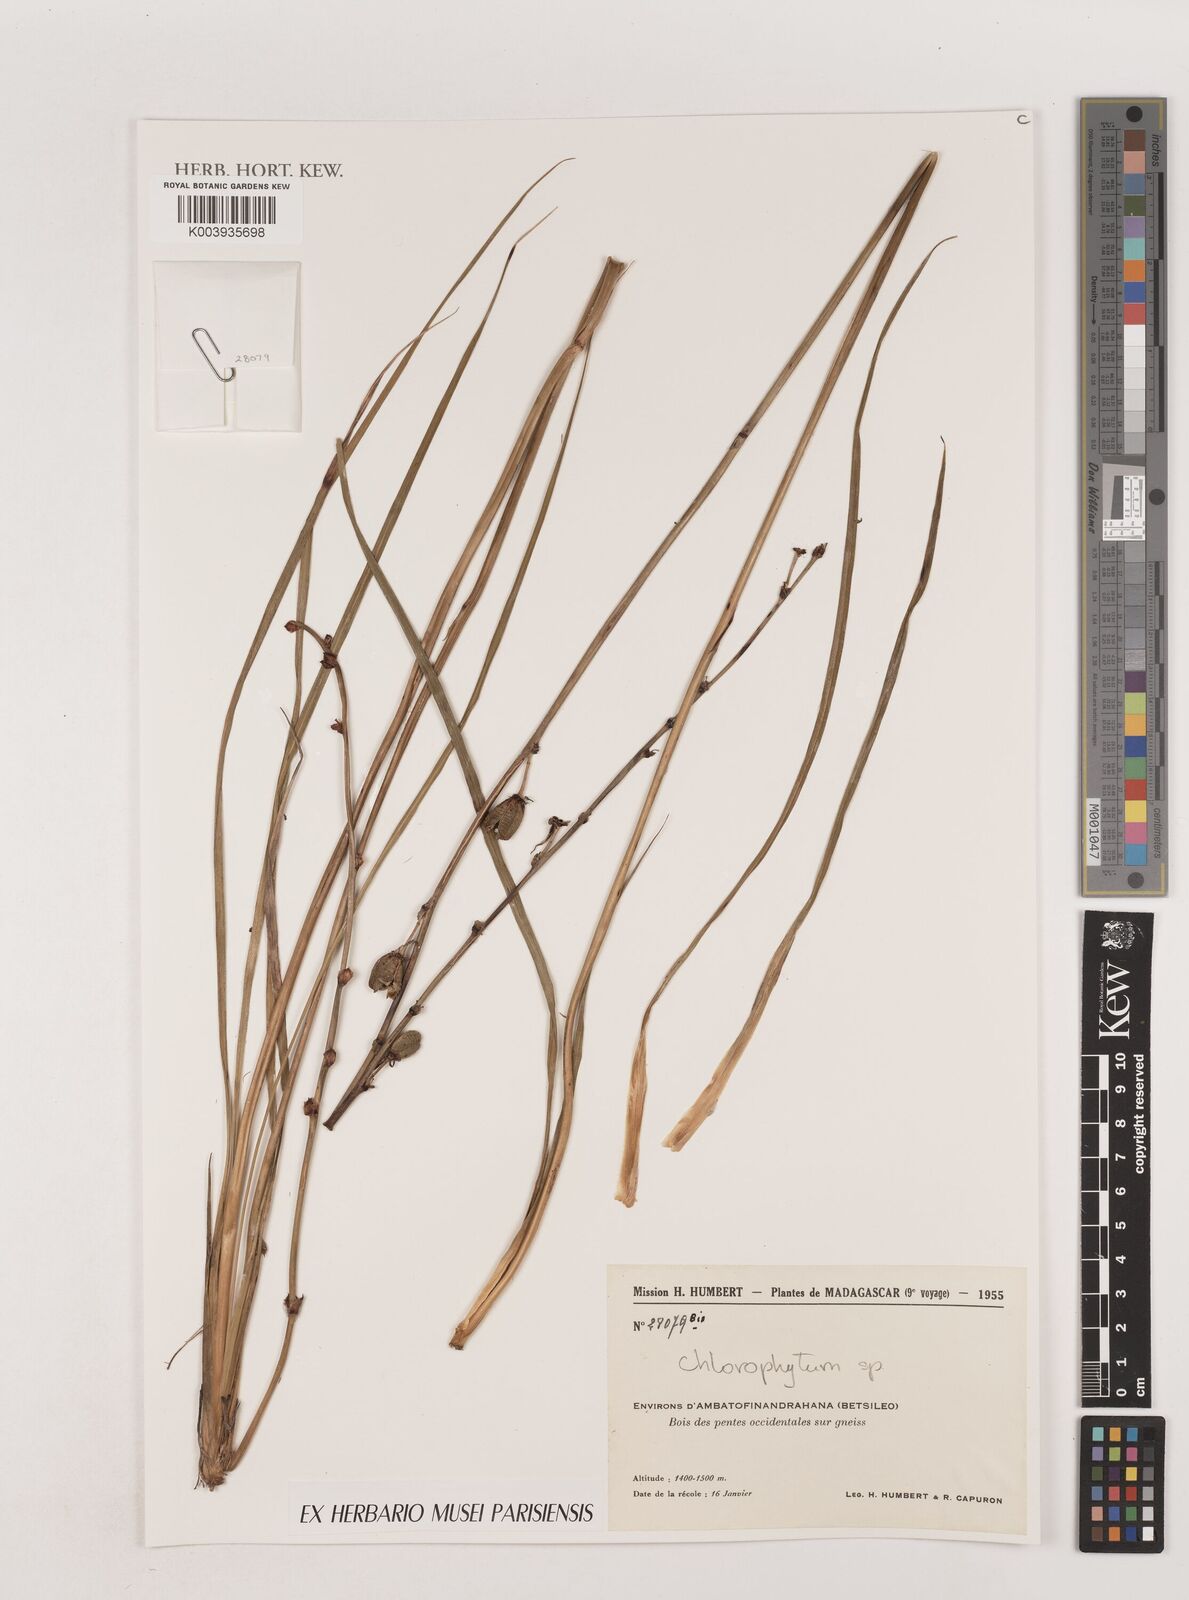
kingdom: Plantae
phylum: Tracheophyta
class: Liliopsida
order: Asparagales
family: Asparagaceae
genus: Chlorophytum
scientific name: Chlorophytum
